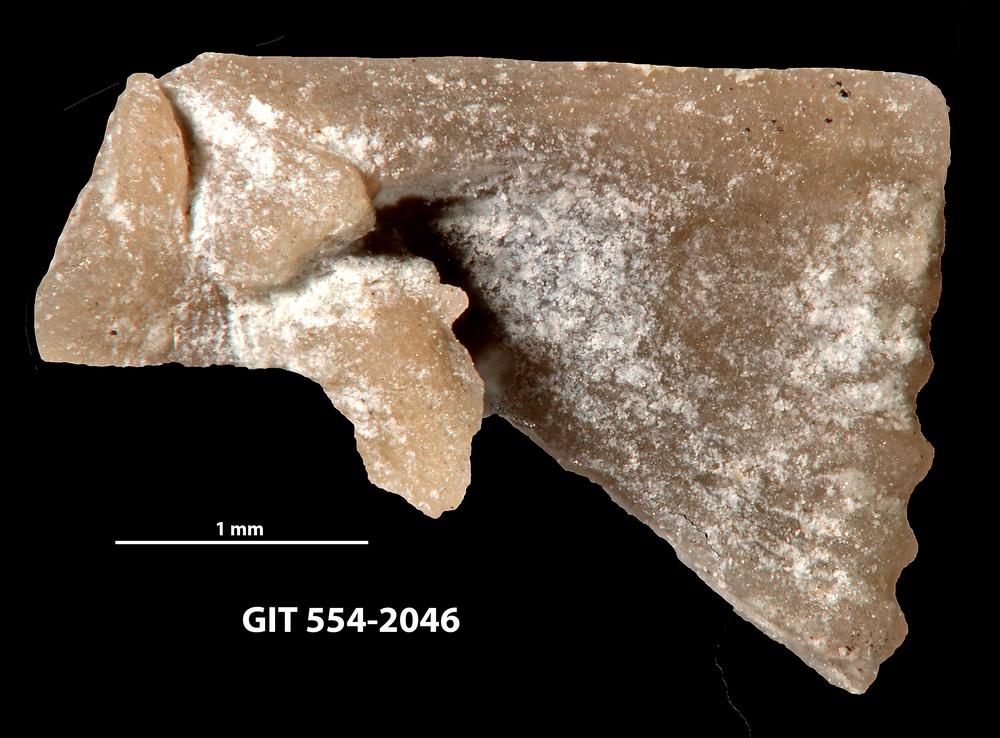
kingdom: Animalia
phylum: Brachiopoda
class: Rhynchonellata
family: Wangyuiidae
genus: Wangyuia
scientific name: Wangyuia
